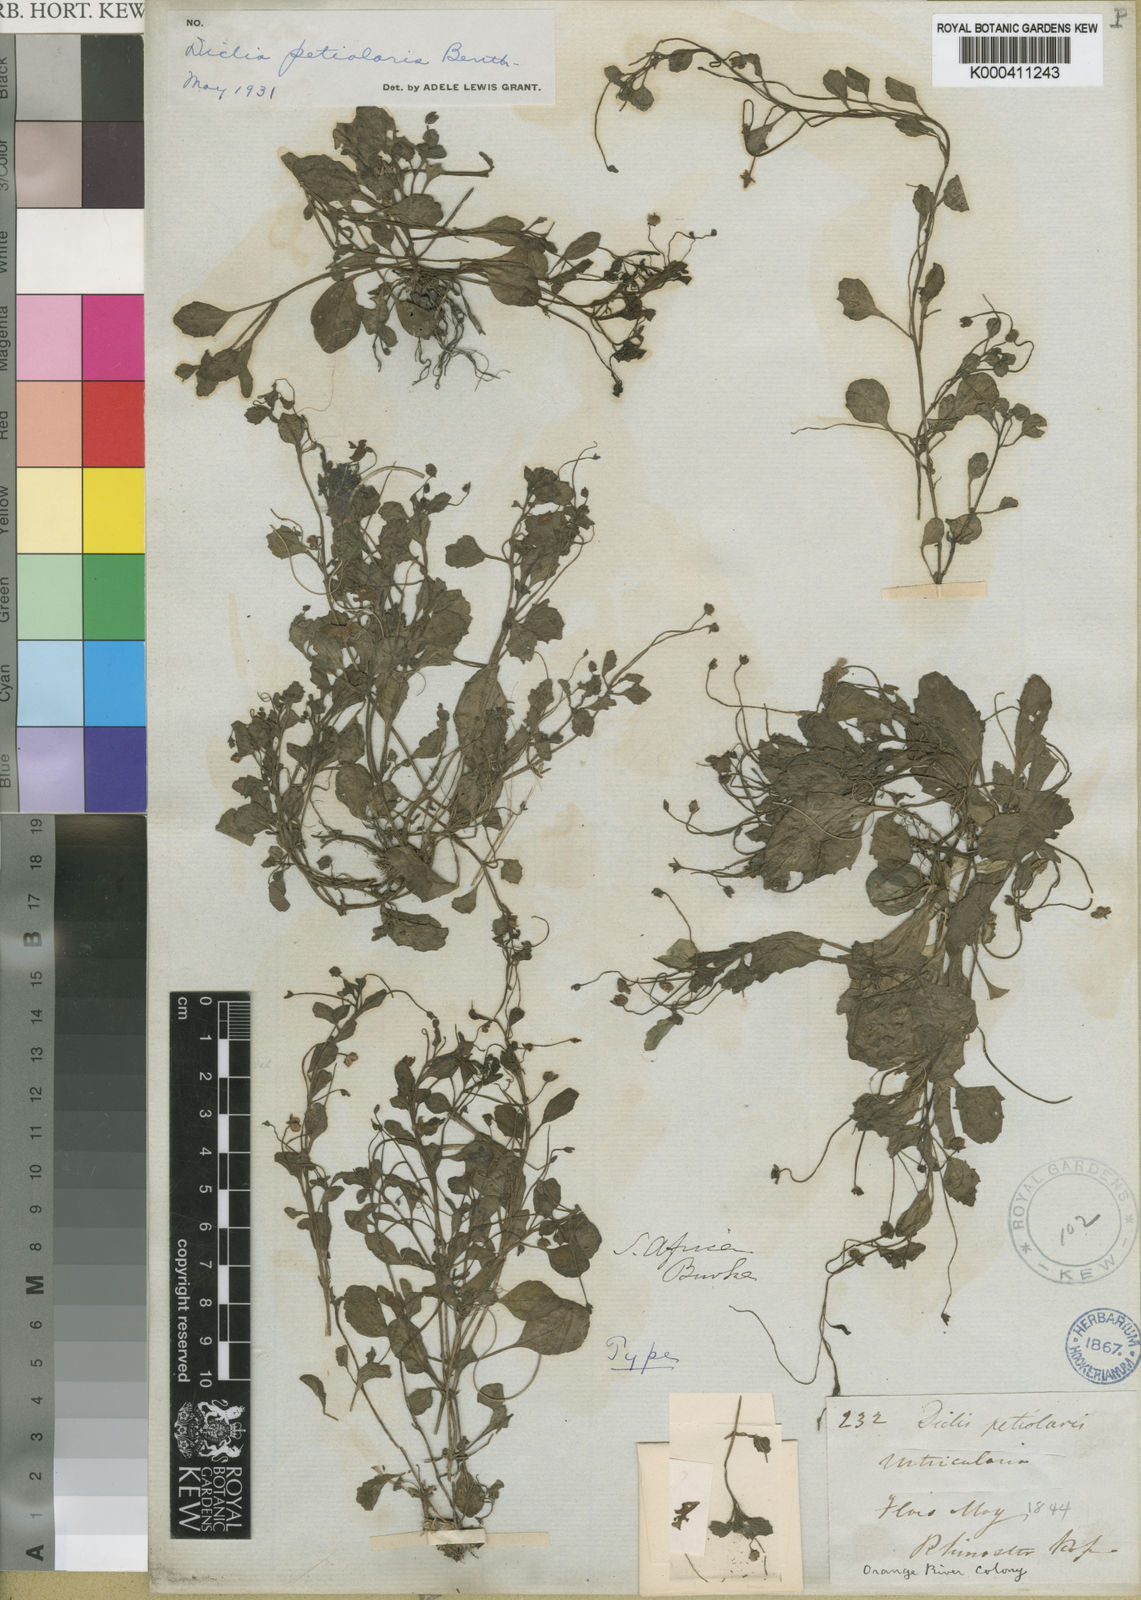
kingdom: Plantae
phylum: Tracheophyta
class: Magnoliopsida
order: Lamiales
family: Scrophulariaceae
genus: Diclis
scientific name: Diclis petiolaris
